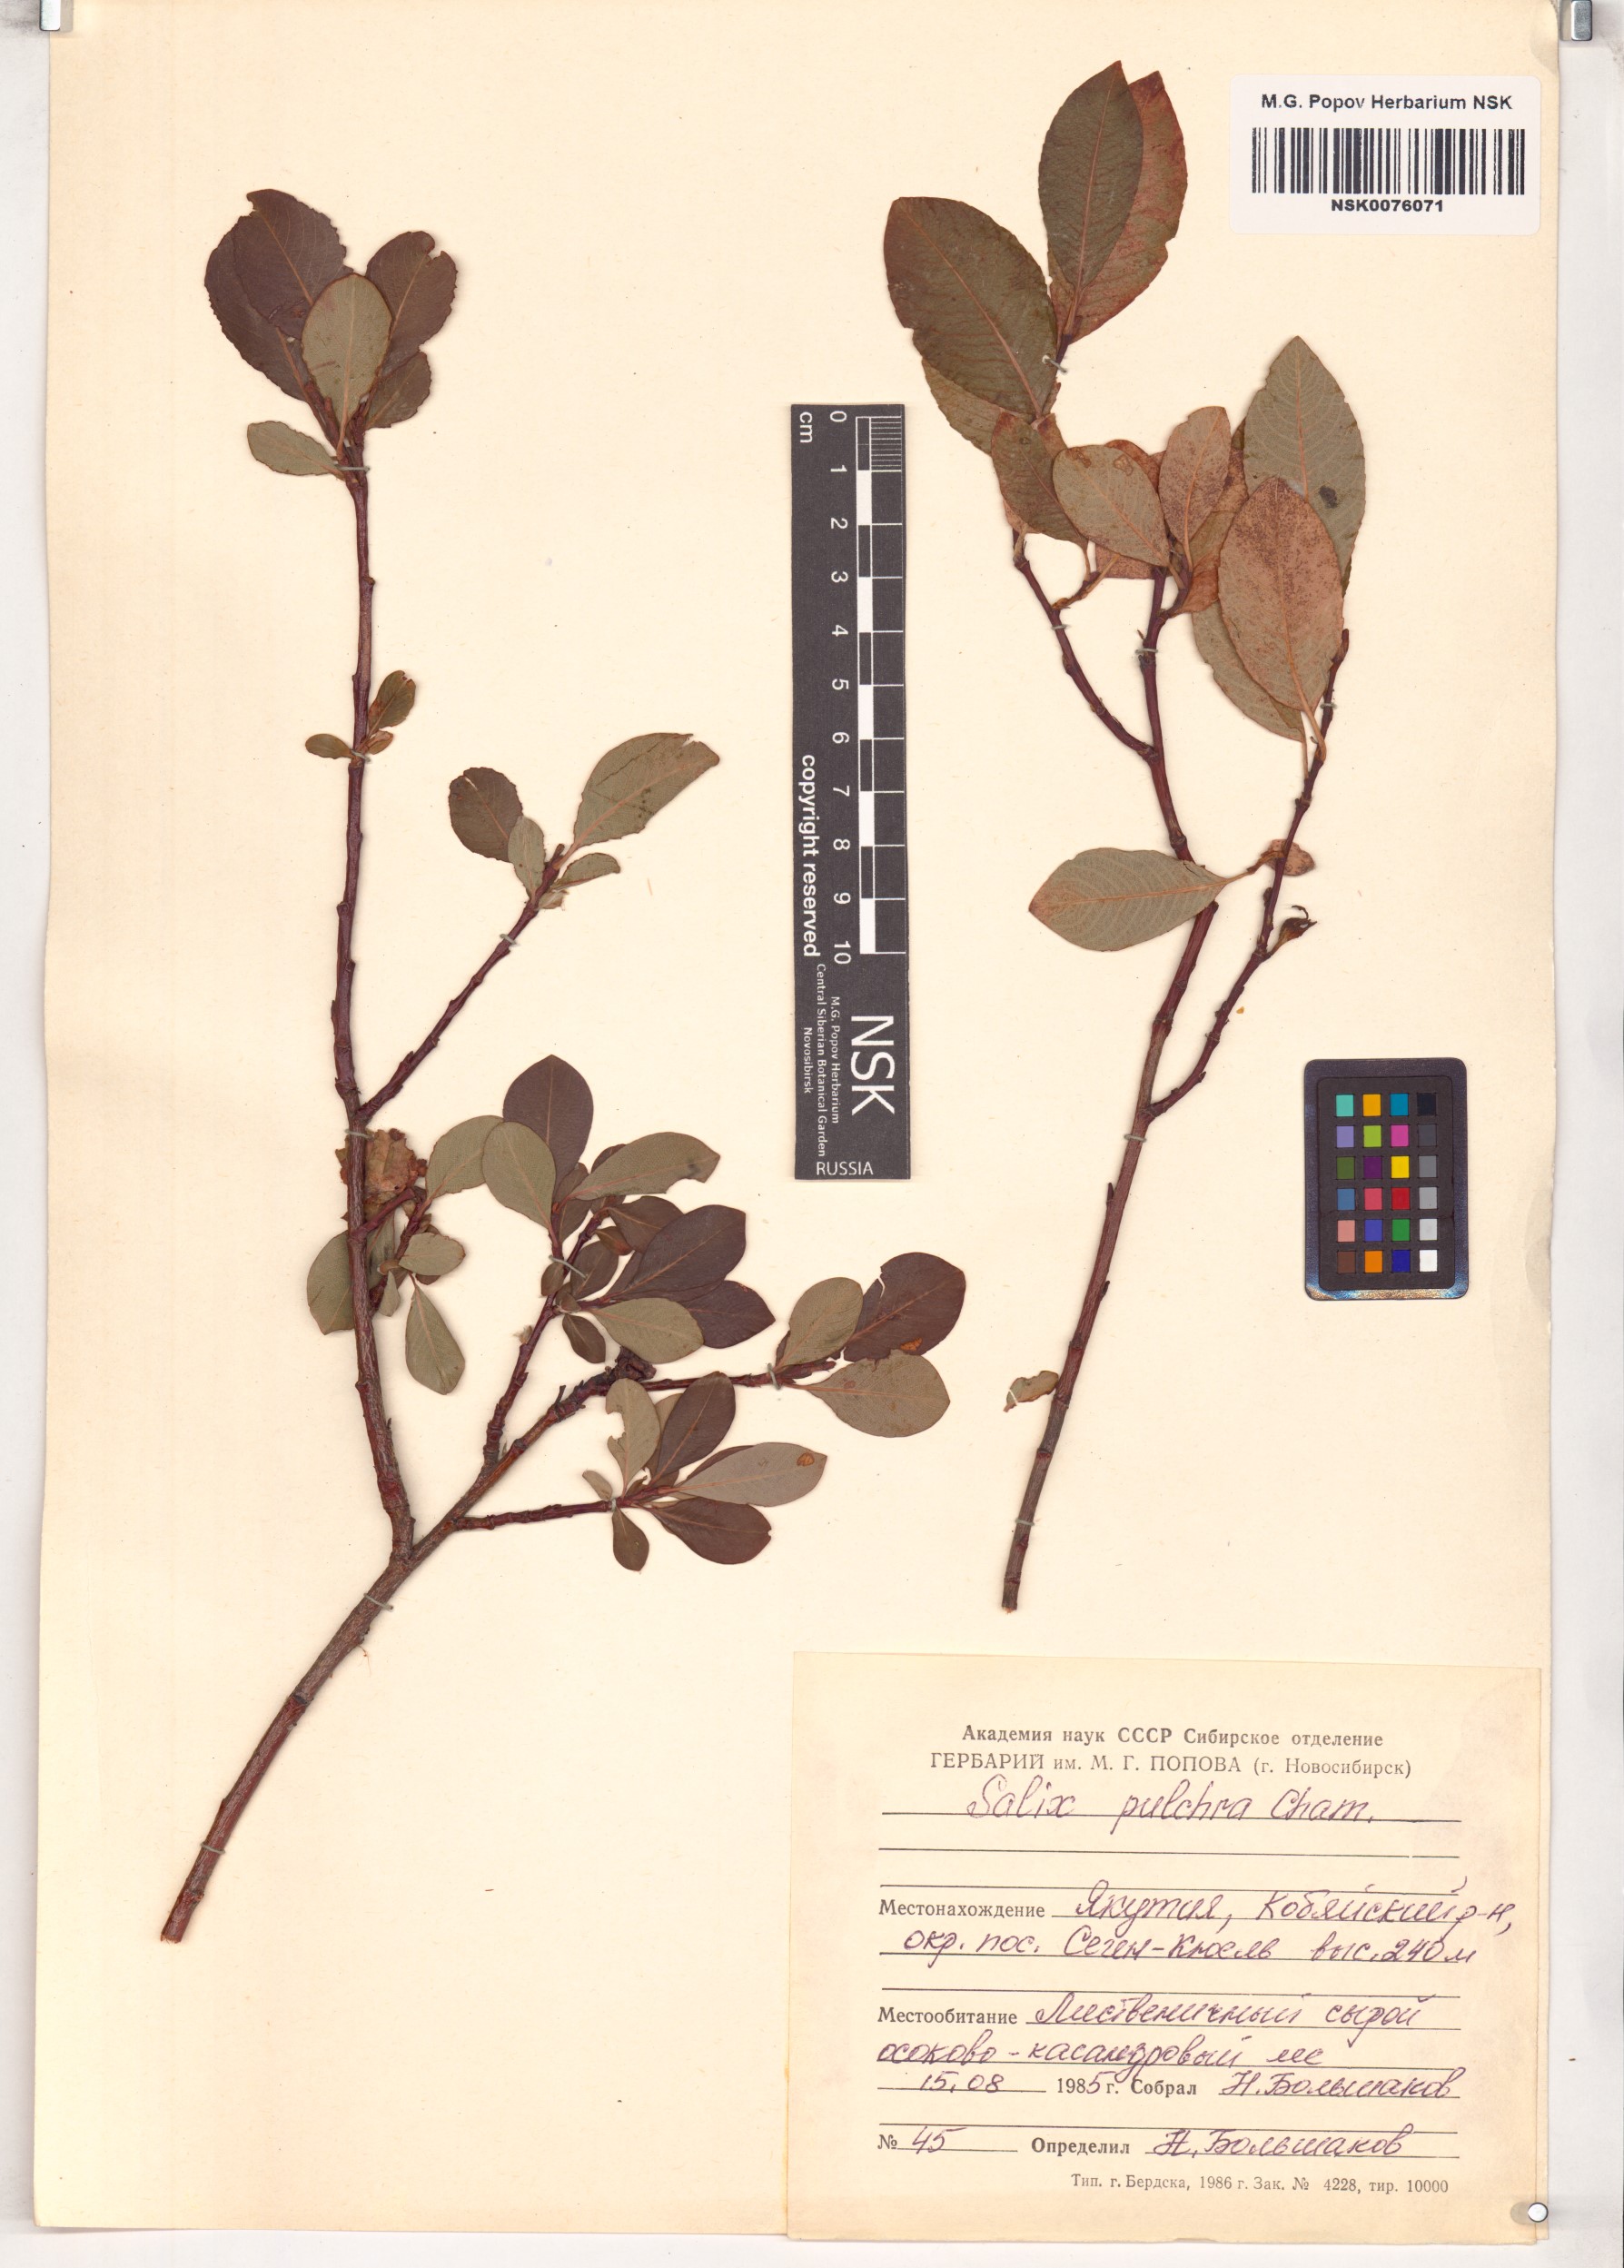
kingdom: Plantae
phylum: Tracheophyta
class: Magnoliopsida
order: Malpighiales
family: Salicaceae
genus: Salix
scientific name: Salix pulchra
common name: Diamond-leaved willow
